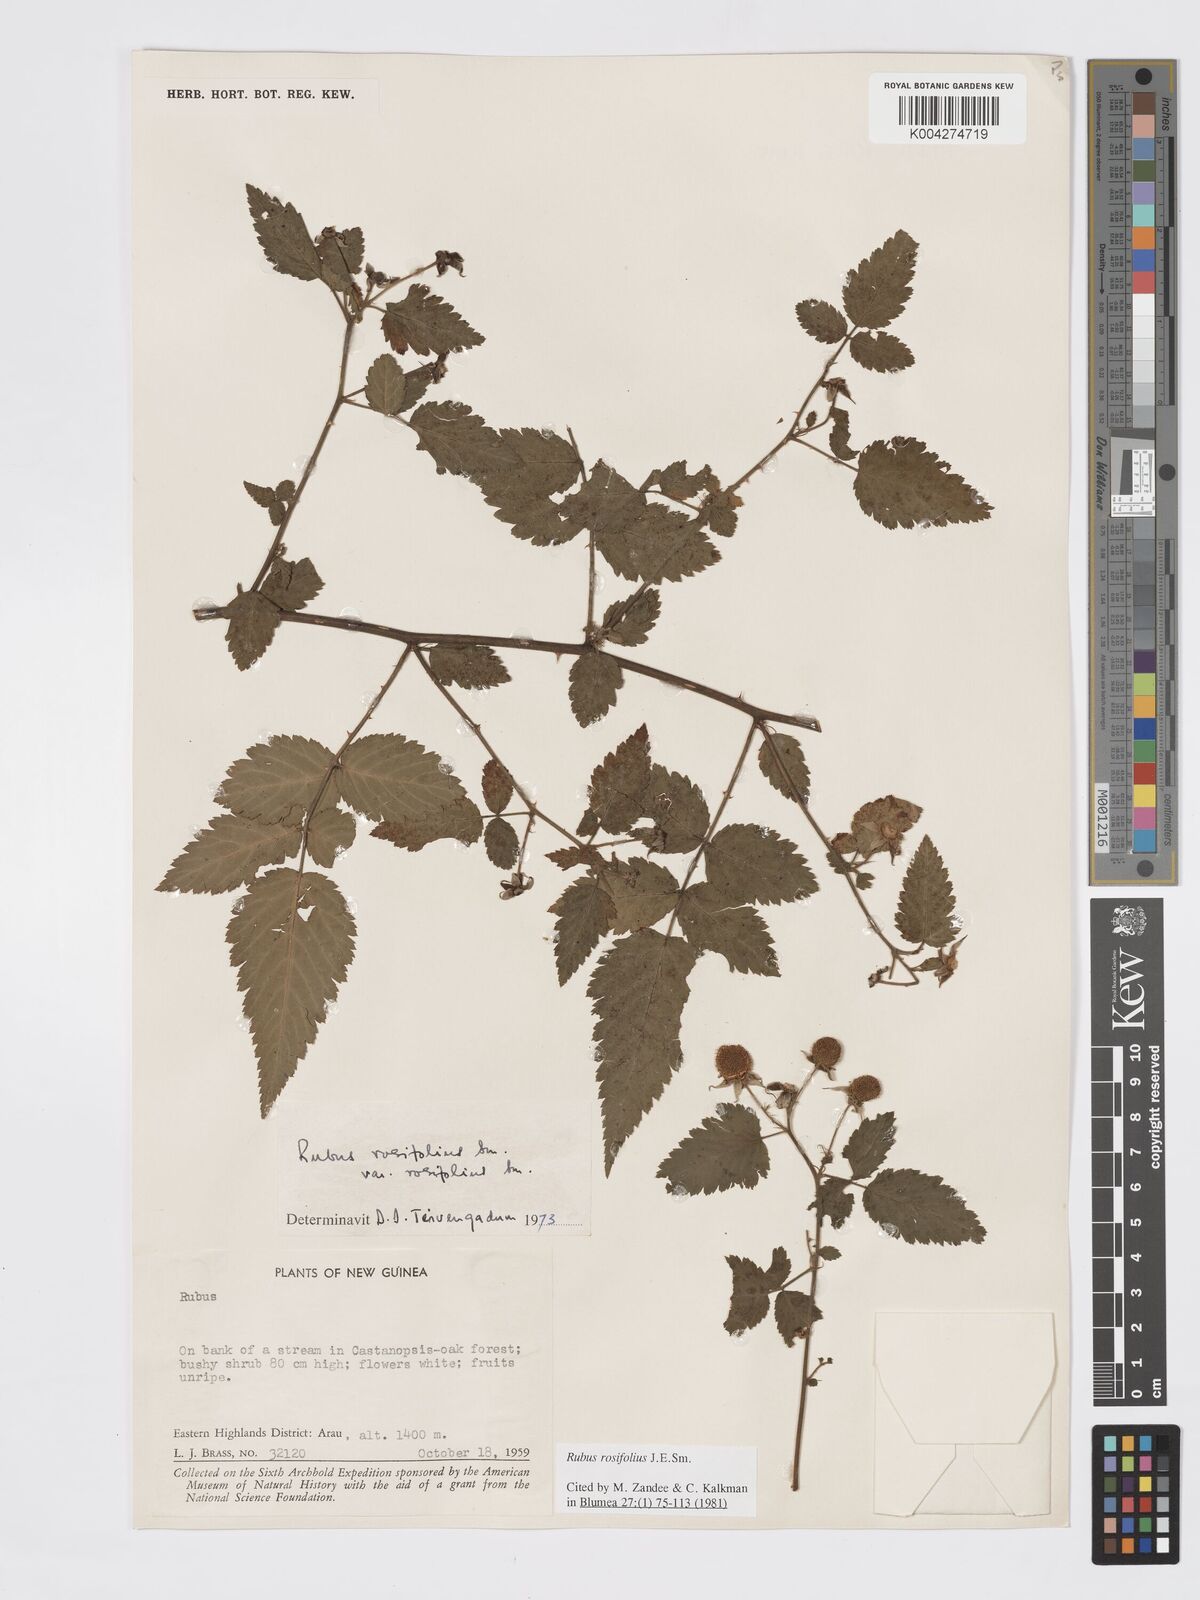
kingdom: Plantae
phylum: Tracheophyta
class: Magnoliopsida
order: Rosales
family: Rosaceae
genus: Rubus
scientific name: Rubus
